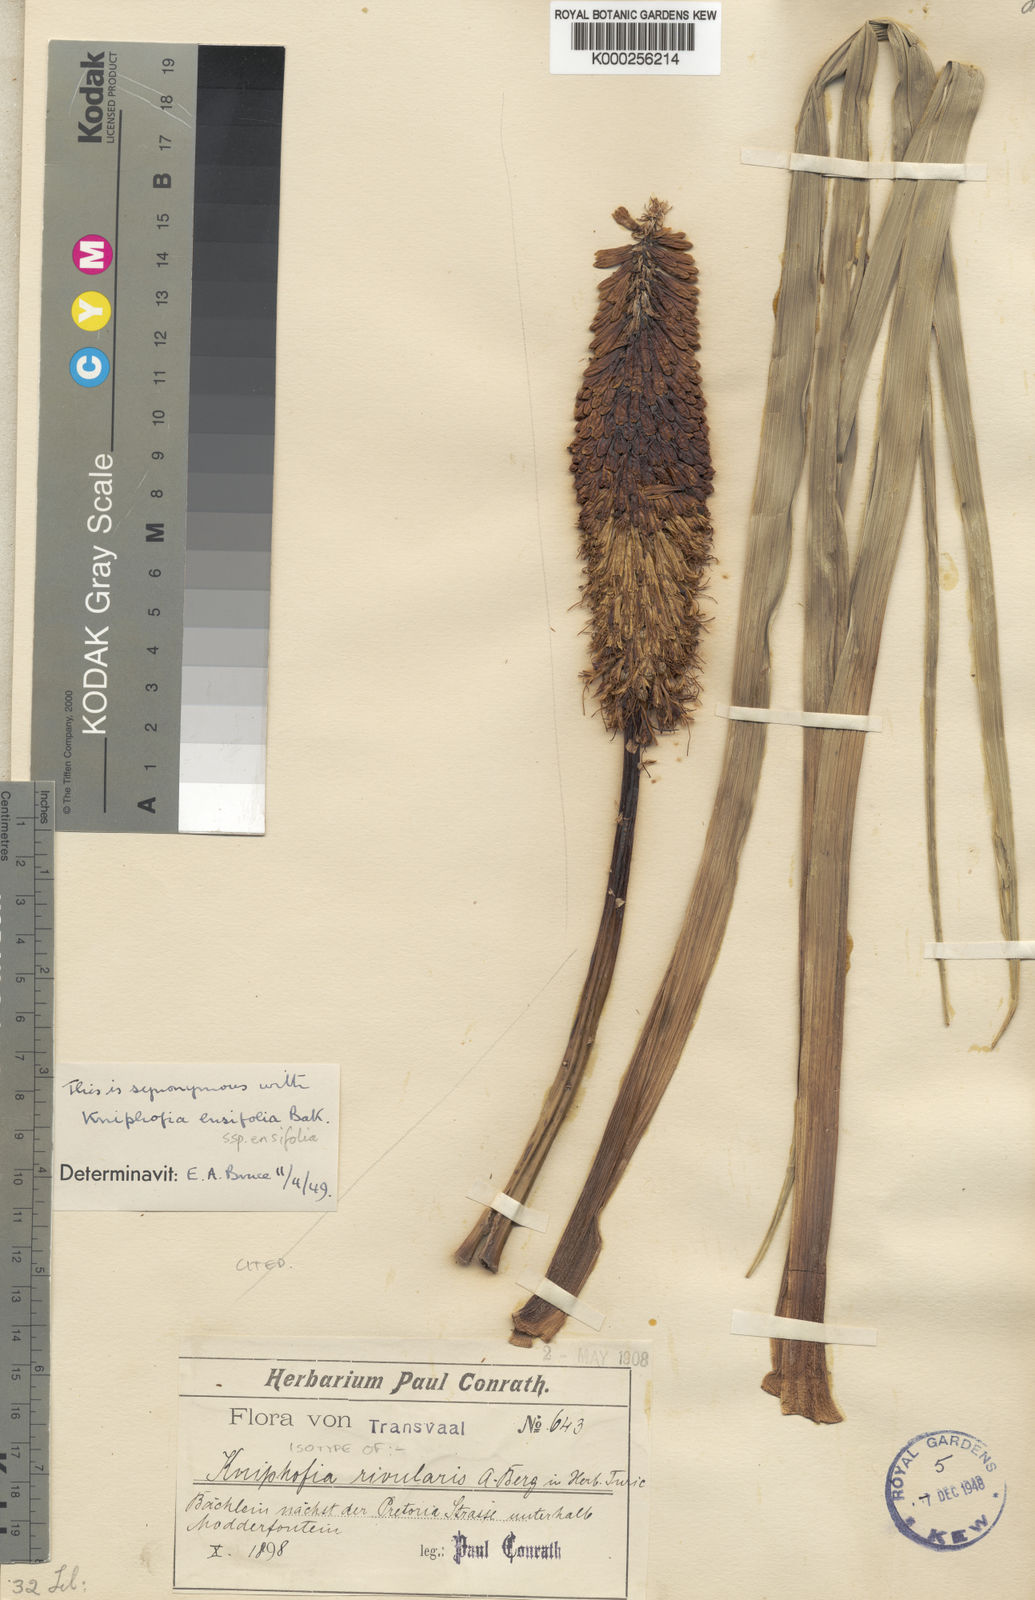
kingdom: Plantae
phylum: Tracheophyta
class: Liliopsida
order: Asparagales
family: Asphodelaceae
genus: Kniphofia
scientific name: Kniphofia ensifolia
